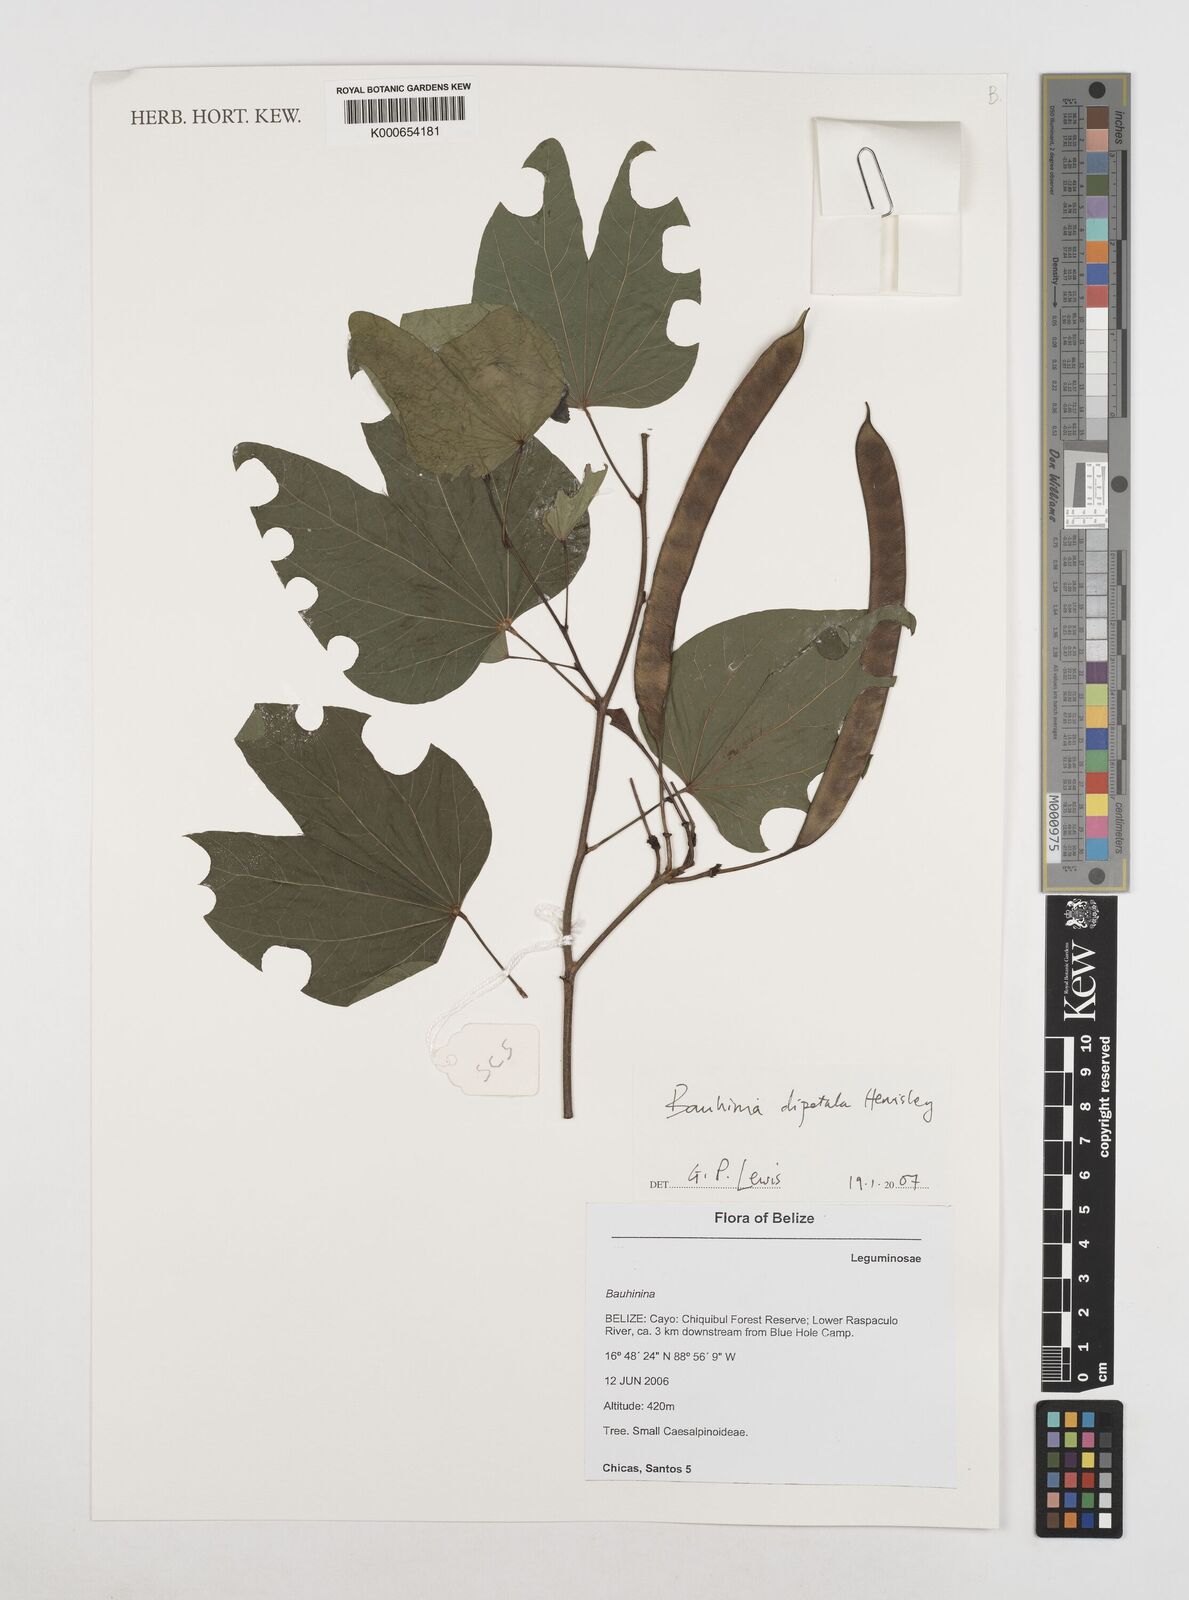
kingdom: Plantae
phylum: Tracheophyta
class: Magnoliopsida
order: Fabales
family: Fabaceae
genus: Bauhinia
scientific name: Bauhinia dipetala
